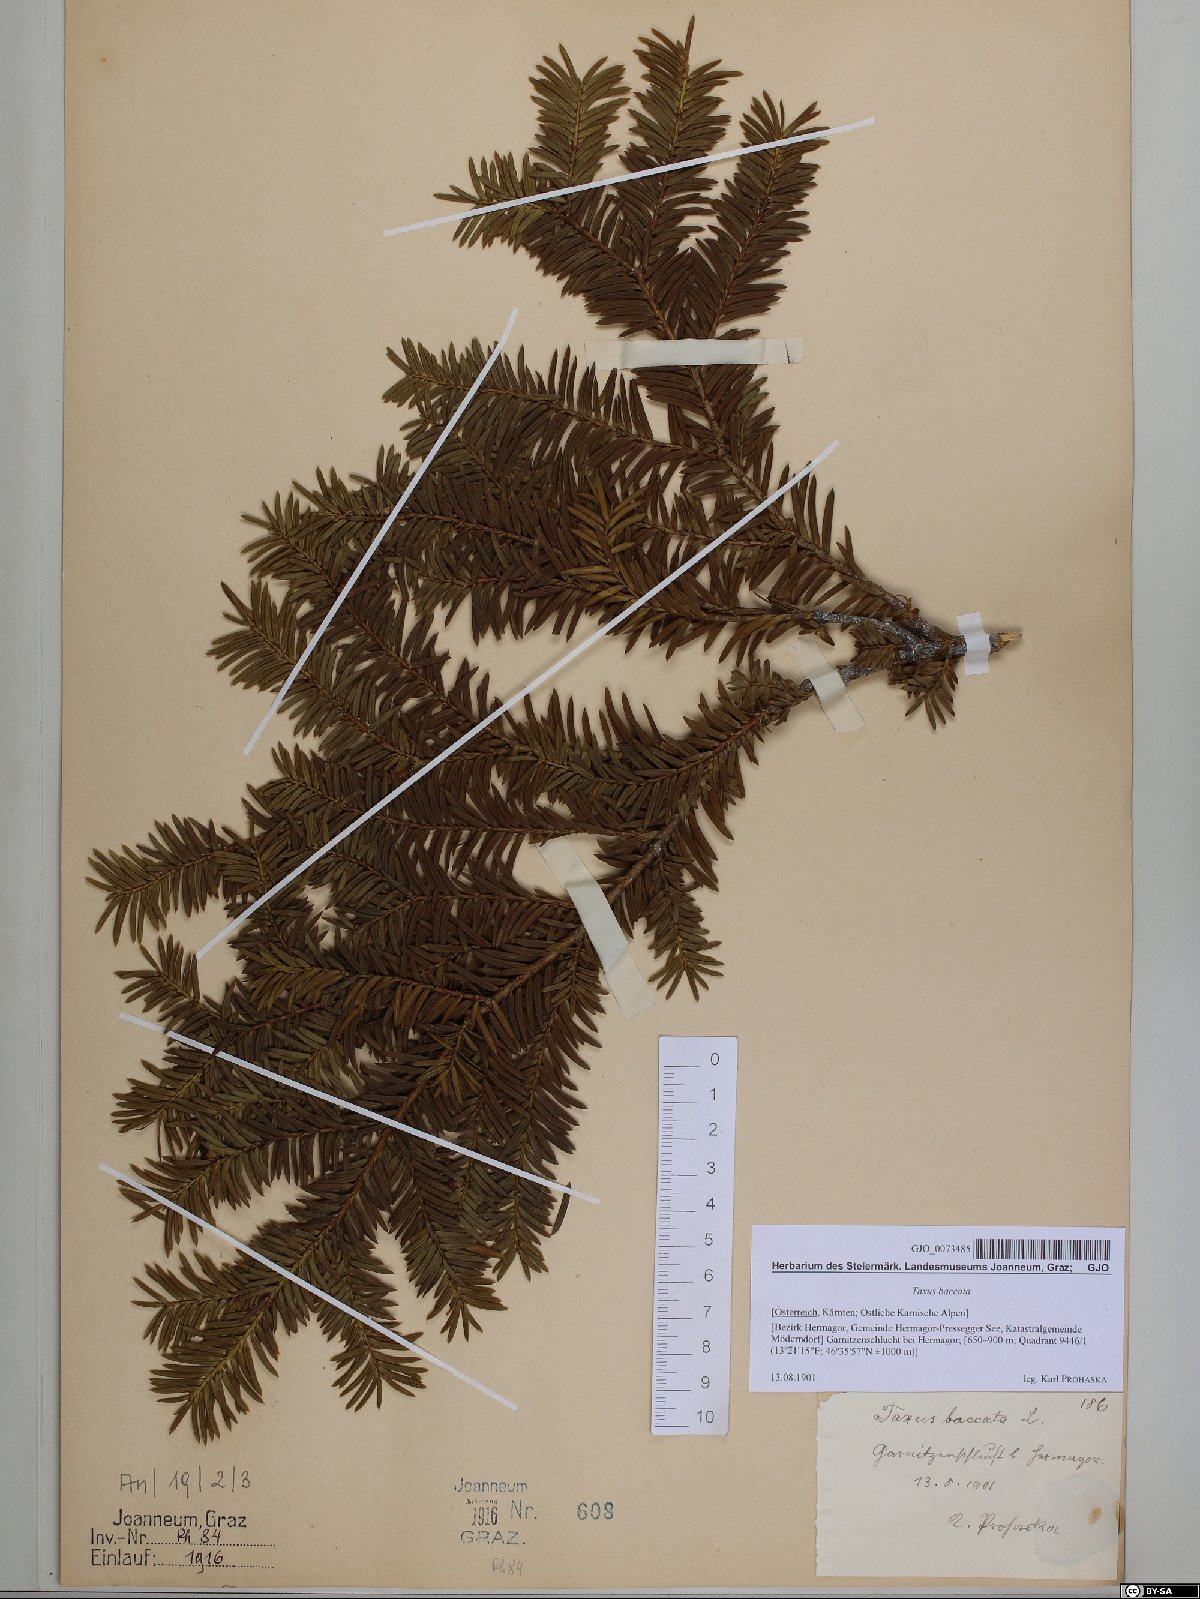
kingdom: Plantae
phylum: Tracheophyta
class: Pinopsida
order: Pinales
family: Taxaceae
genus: Taxus
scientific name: Taxus baccata
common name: Yew
